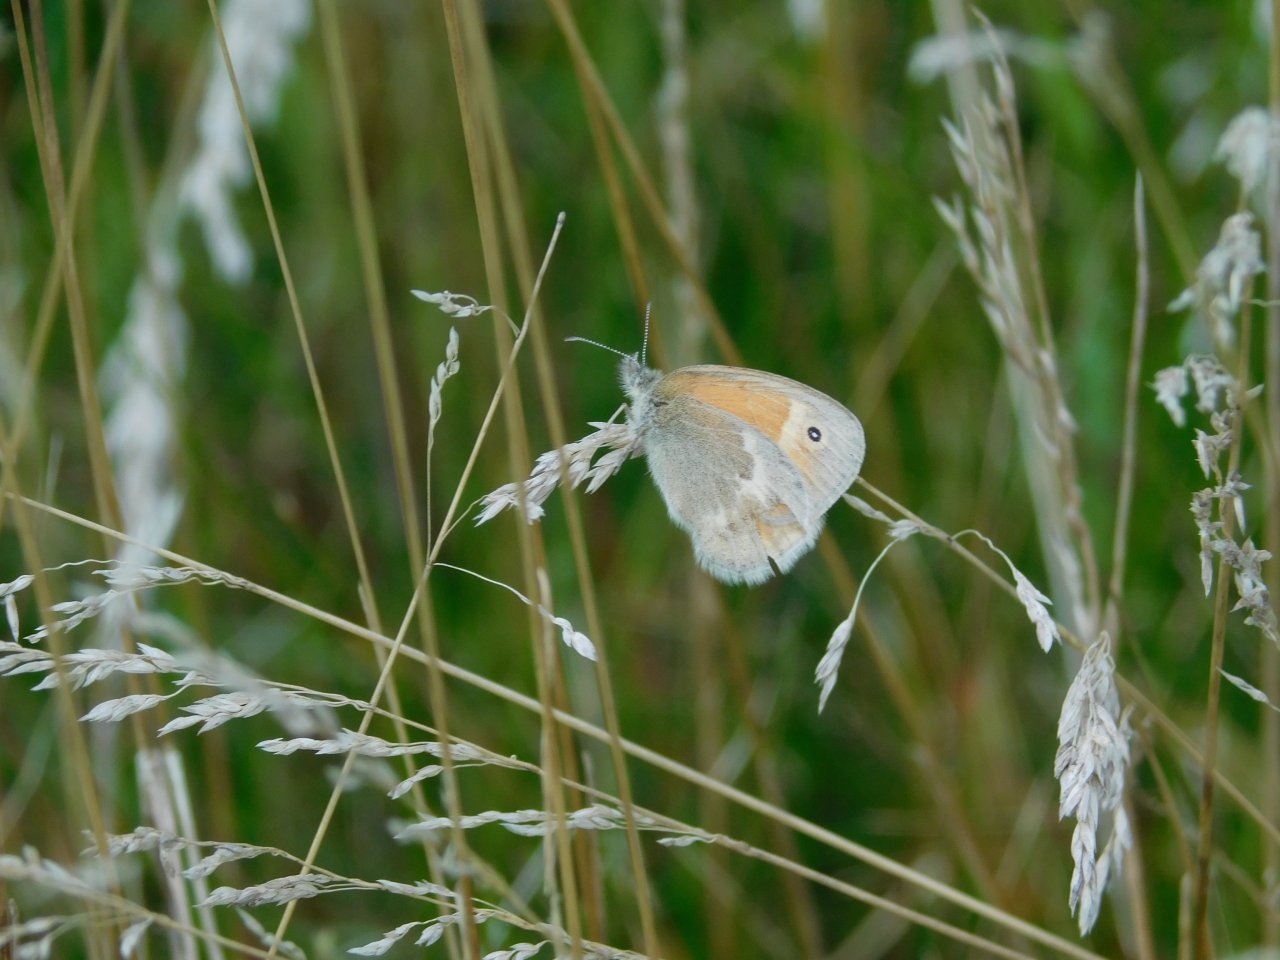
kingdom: Animalia
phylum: Arthropoda
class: Insecta
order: Lepidoptera
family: Nymphalidae
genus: Coenonympha
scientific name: Coenonympha tullia
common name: Large Heath
